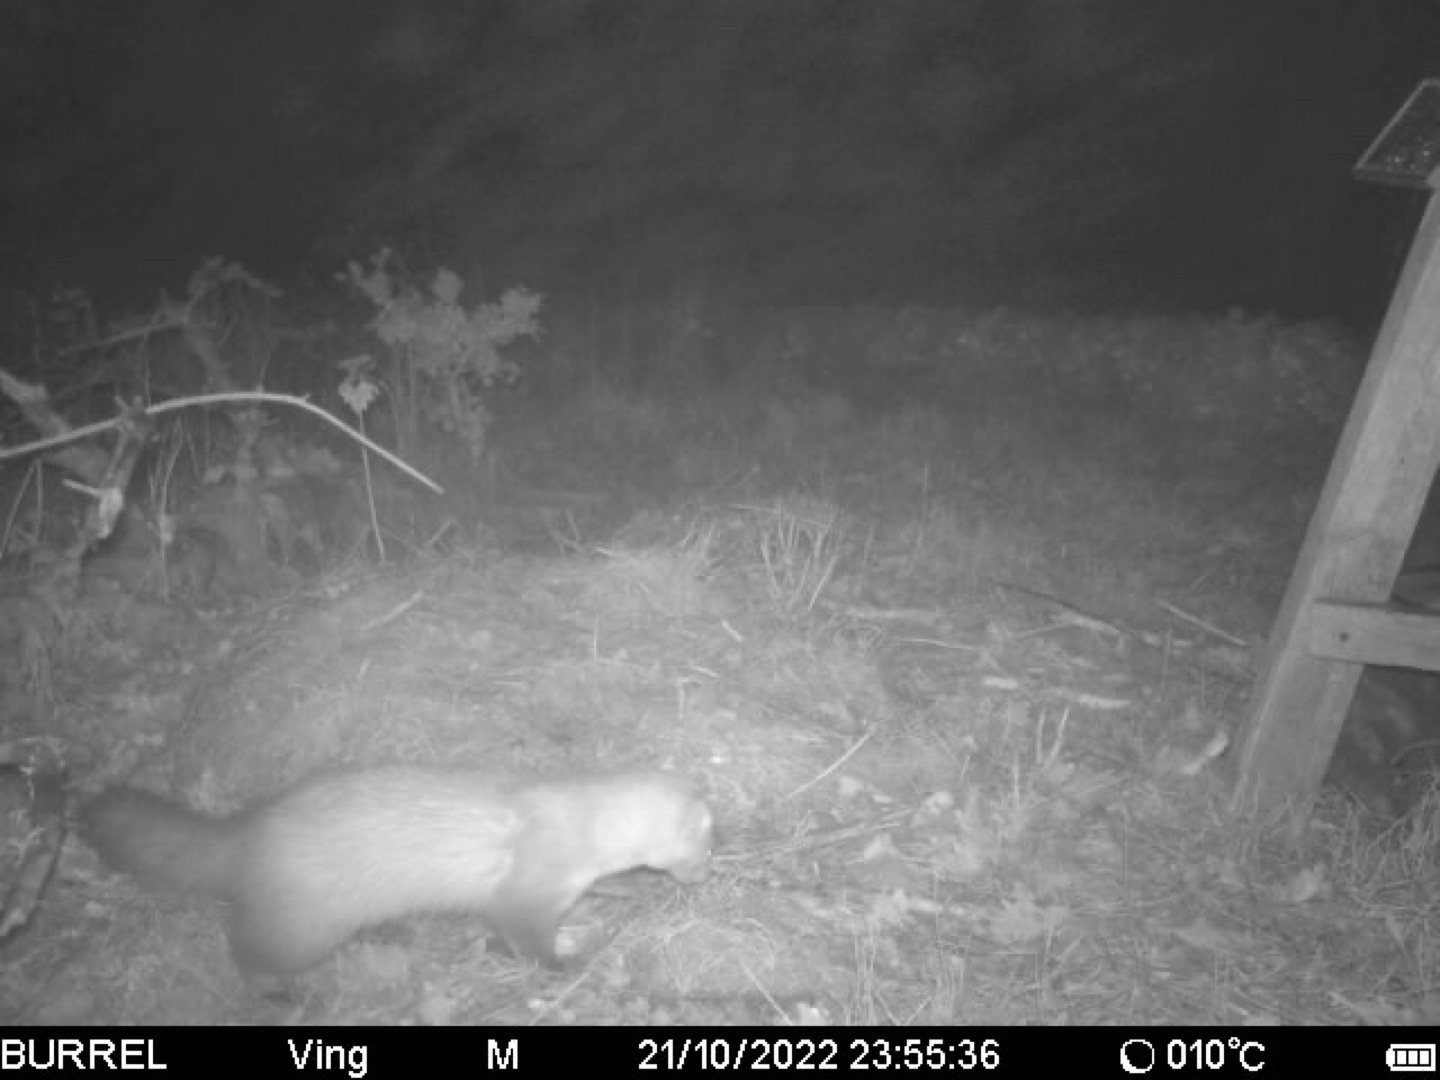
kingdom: Animalia
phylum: Chordata
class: Mammalia
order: Carnivora
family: Mustelidae
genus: Martes
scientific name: Martes foina
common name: Husmår
